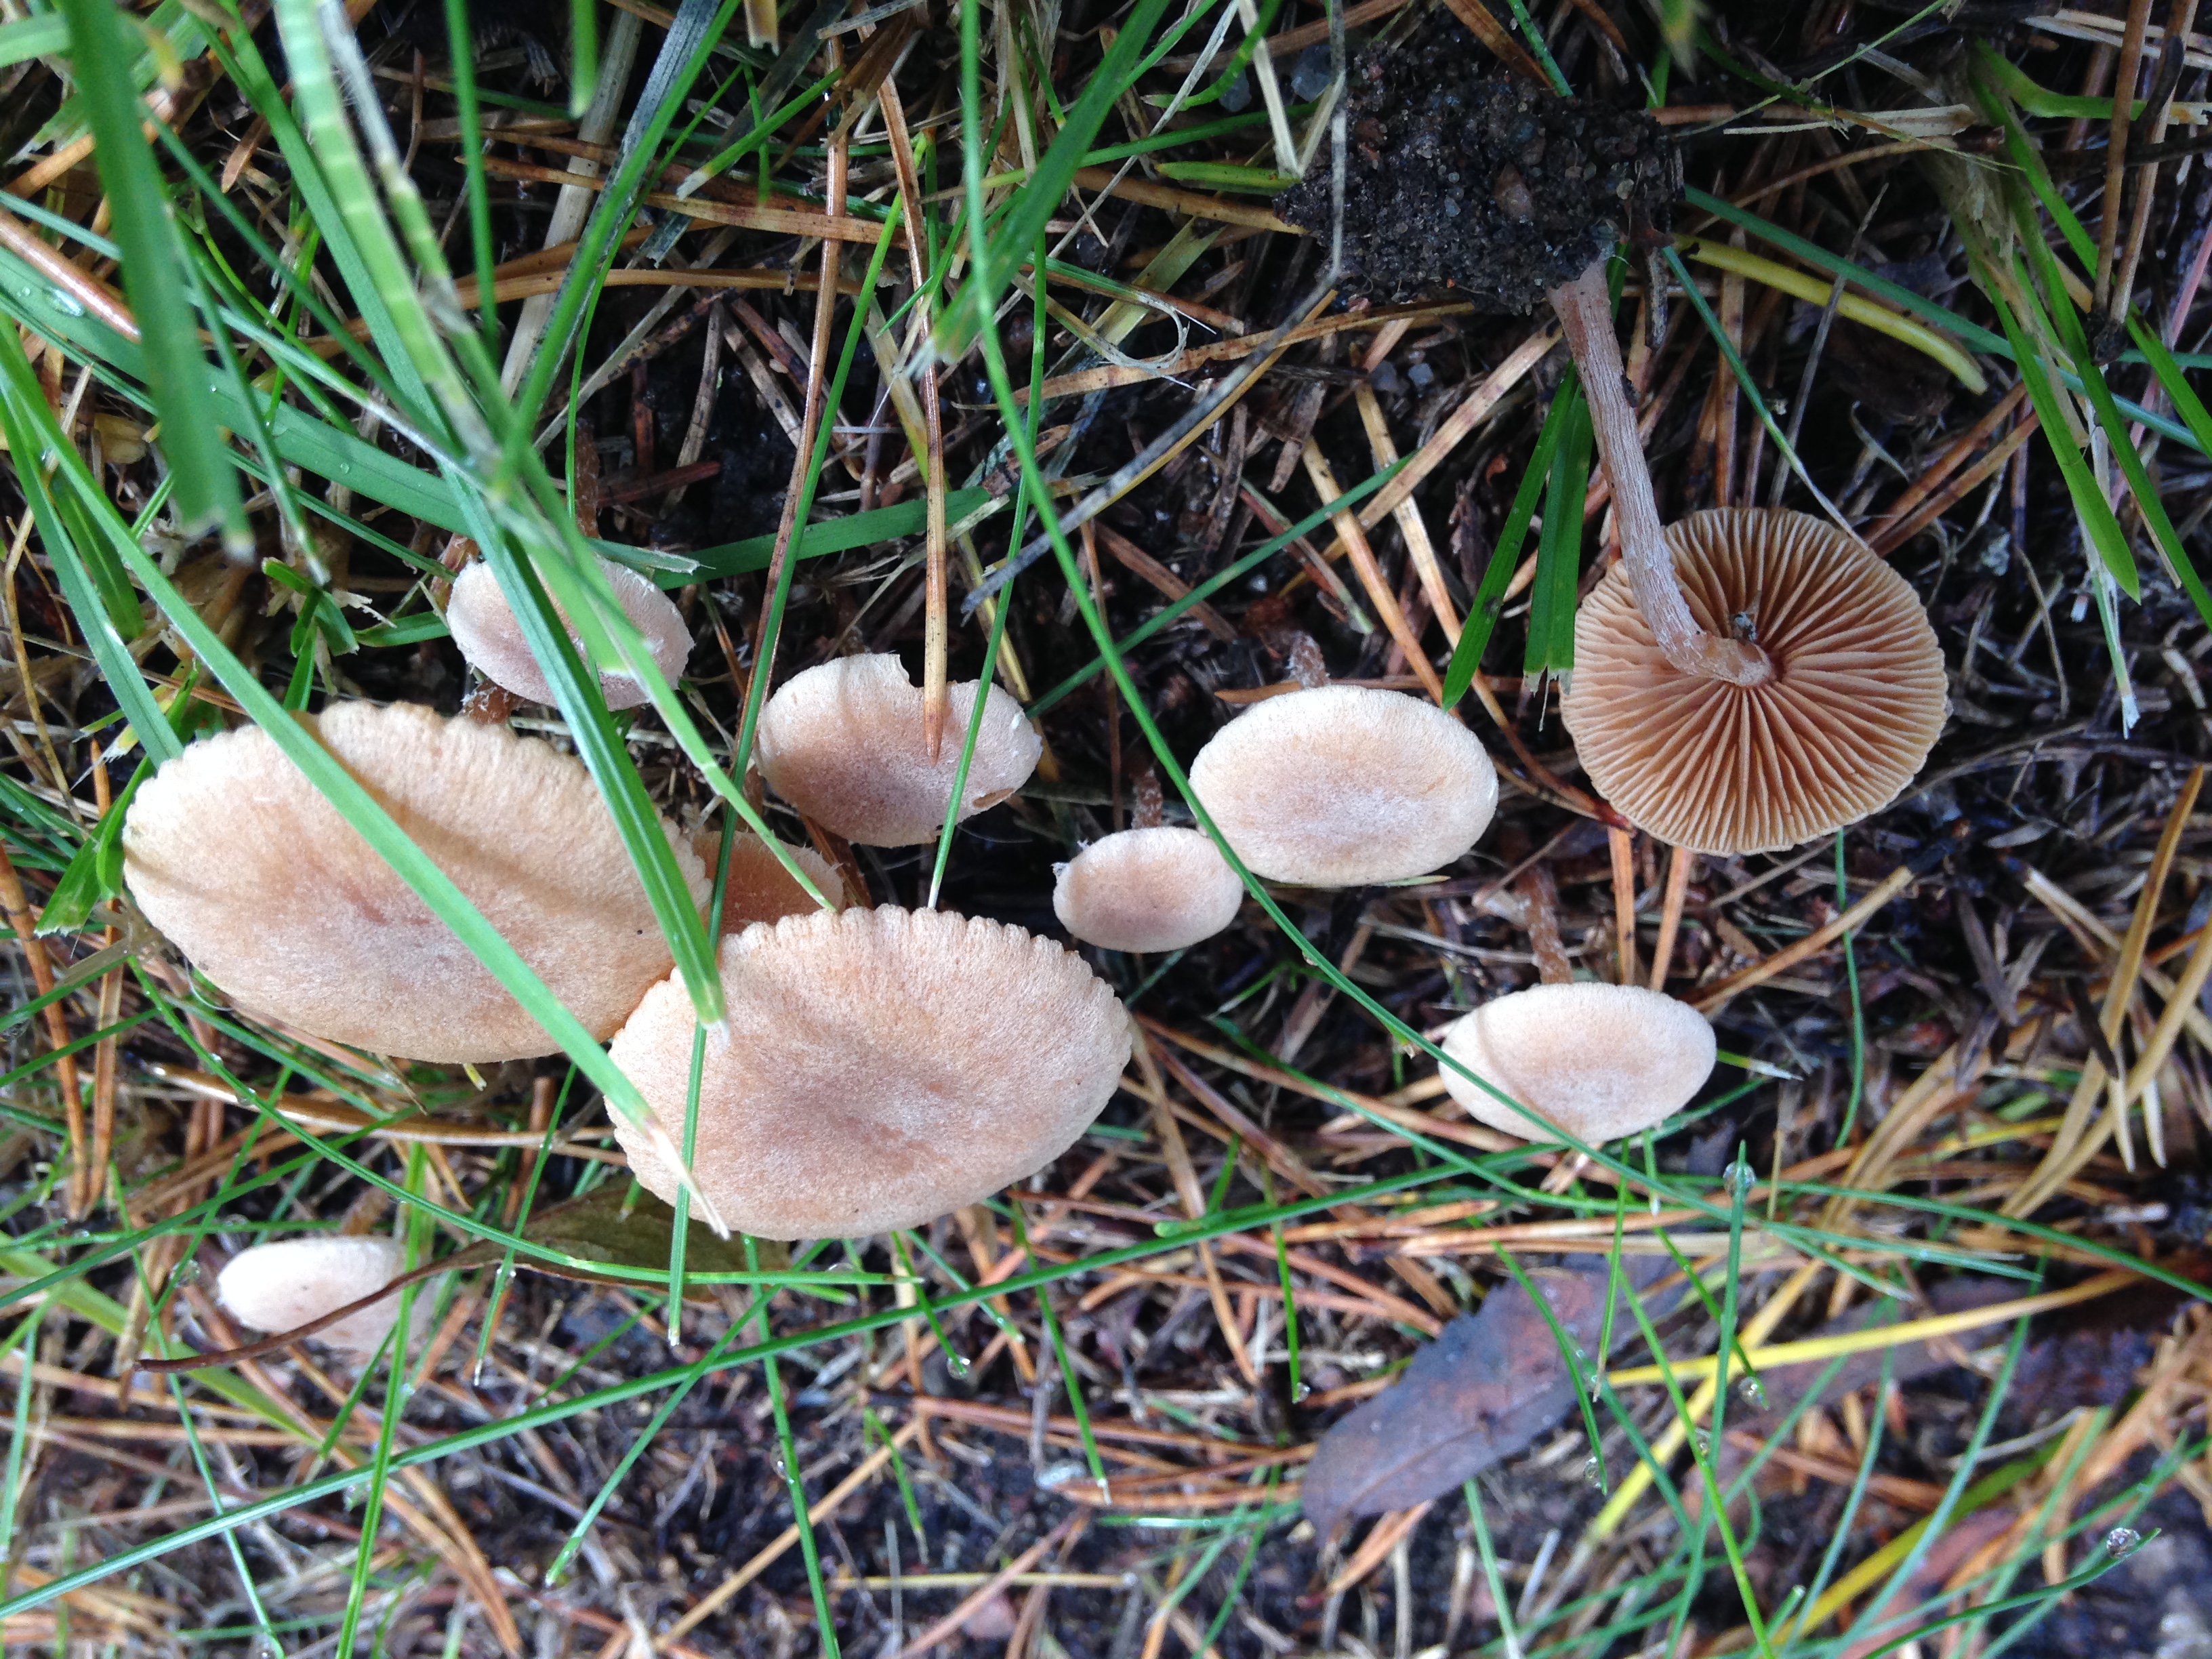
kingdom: Fungi
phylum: Basidiomycota
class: Agaricomycetes
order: Agaricales
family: Tubariaceae
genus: Tubaria
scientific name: Tubaria conspersa
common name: Felted twiglet
